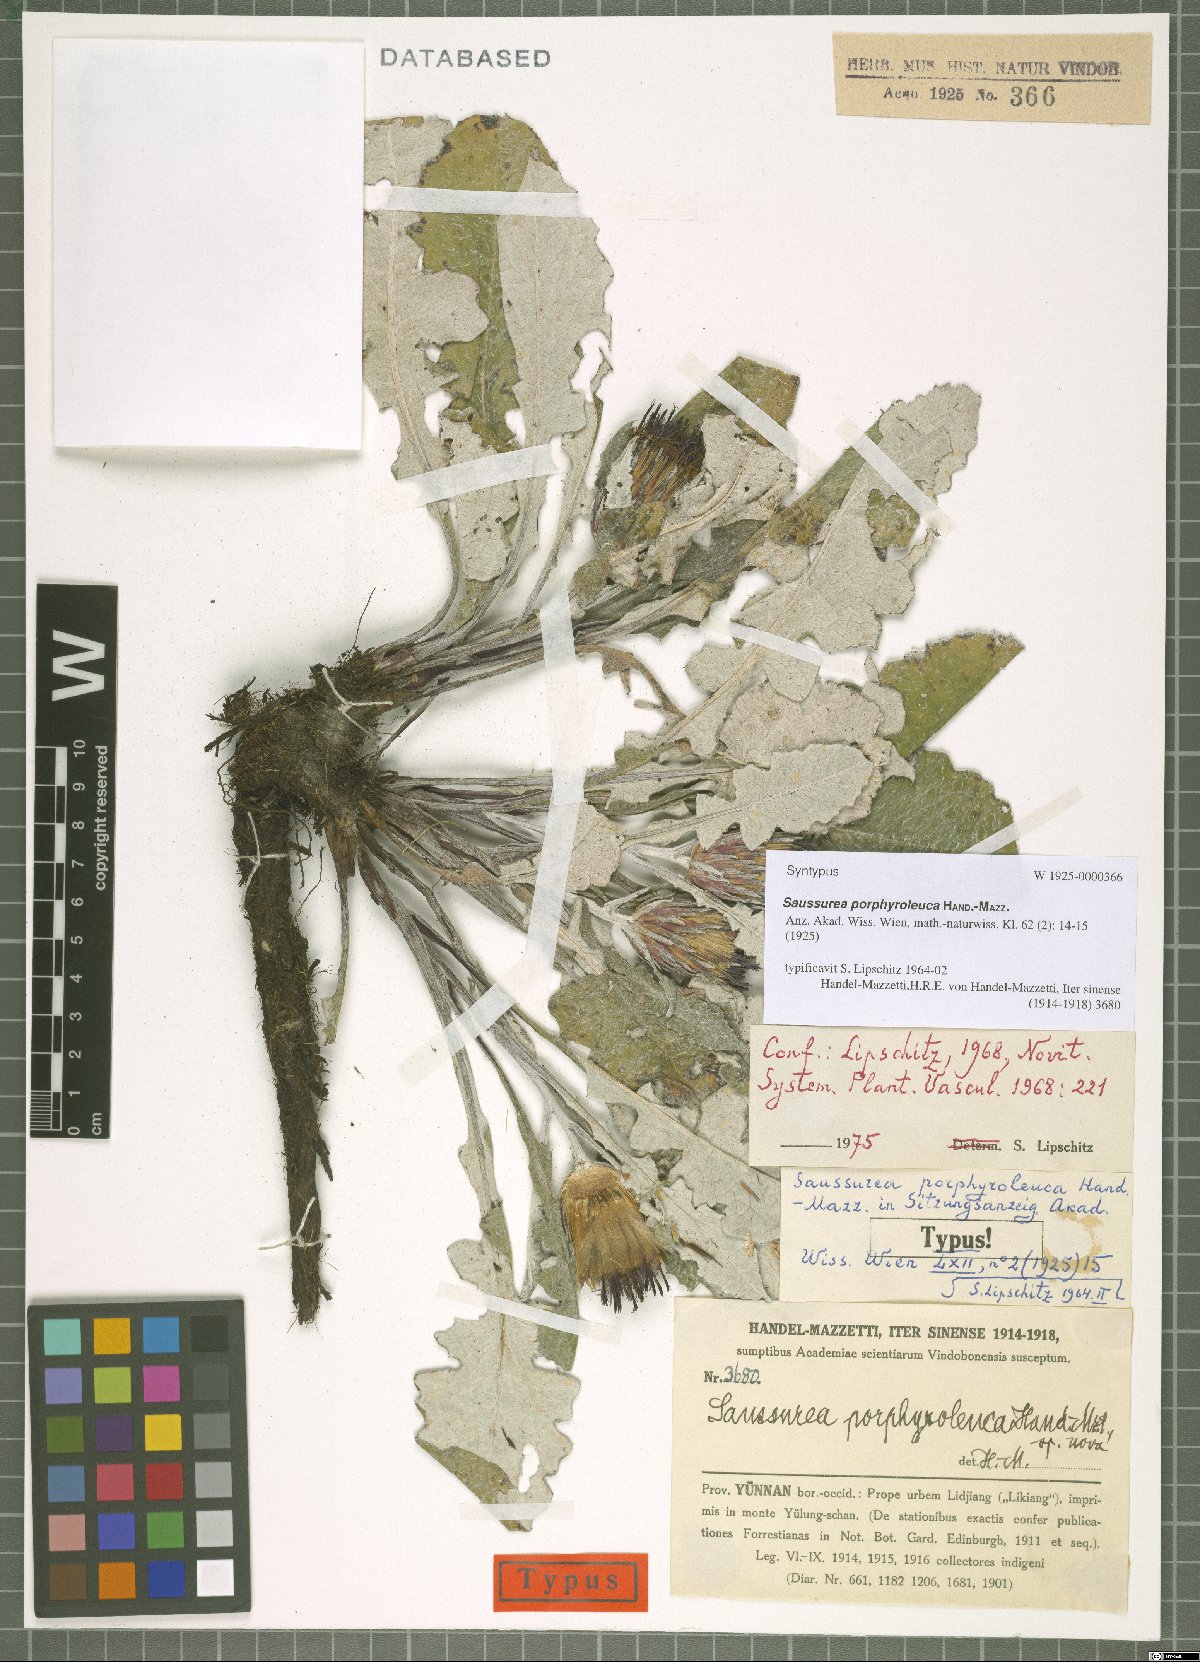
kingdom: Plantae
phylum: Tracheophyta
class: Magnoliopsida
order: Asterales
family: Asteraceae
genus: Saussurea
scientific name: Saussurea porphyroleuca
